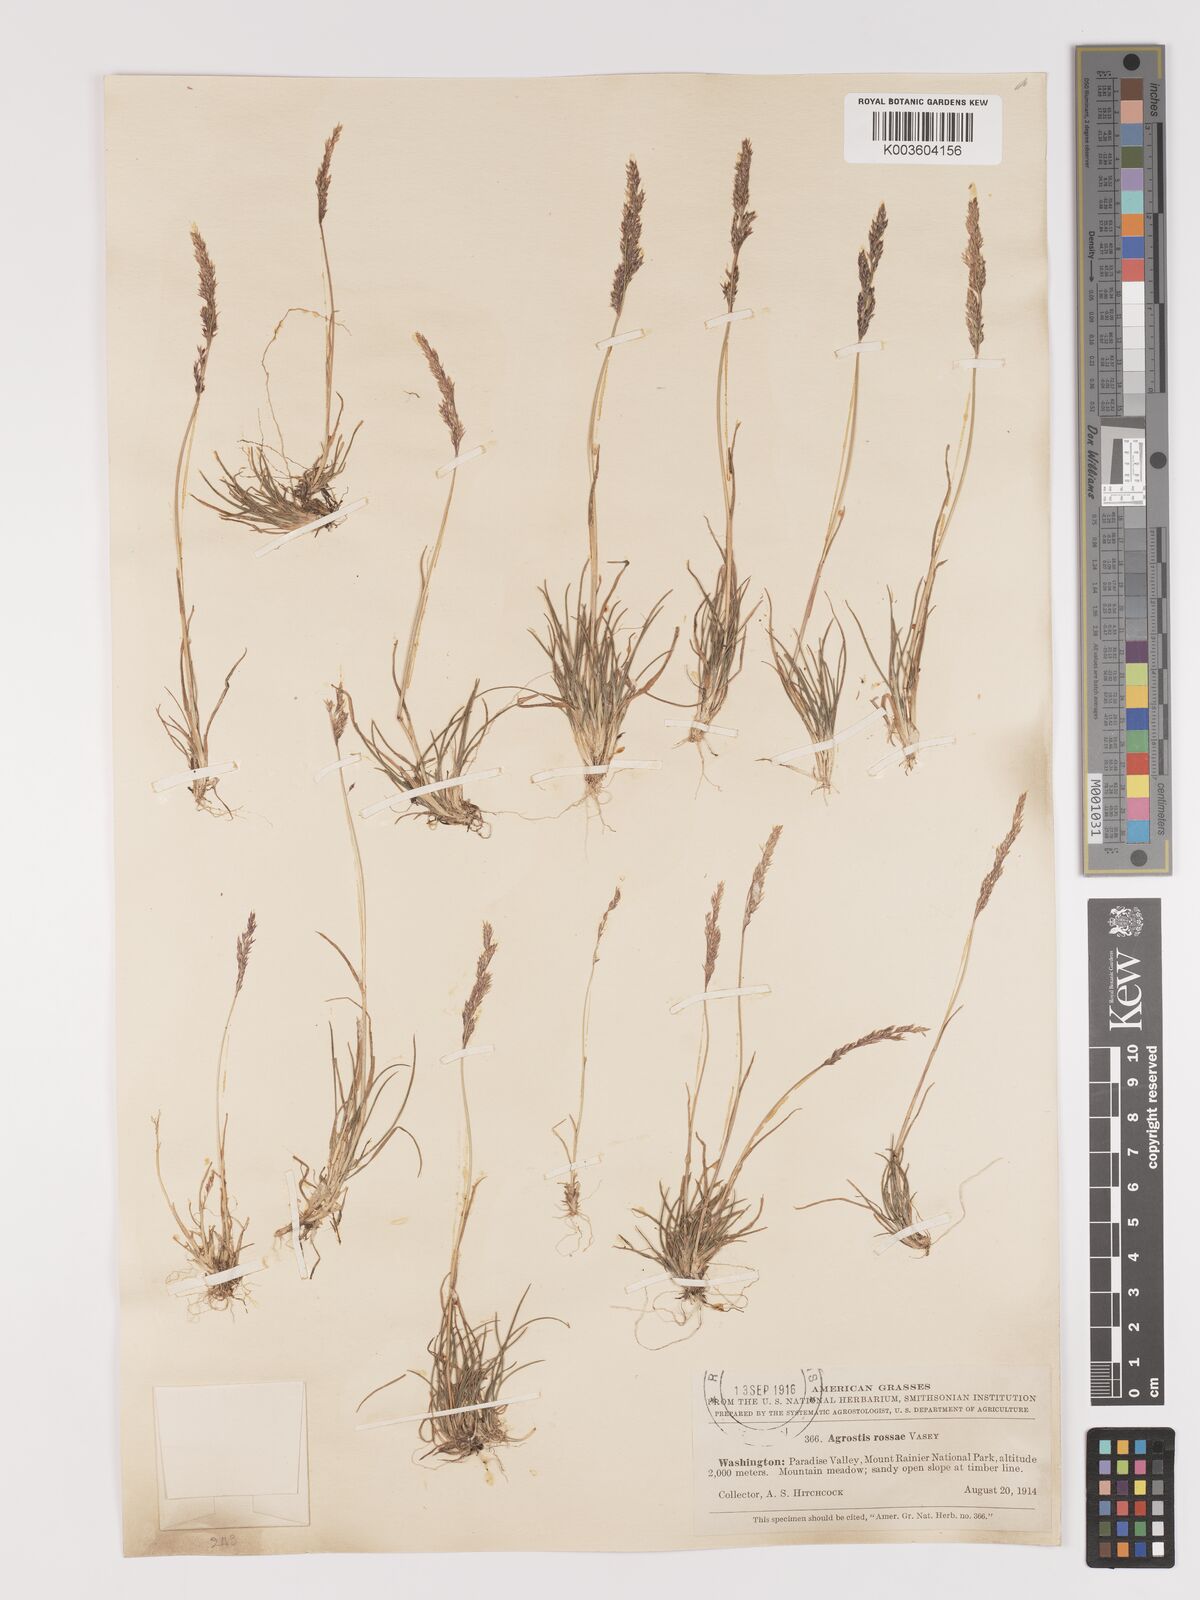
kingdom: Plantae
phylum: Tracheophyta
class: Liliopsida
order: Poales
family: Poaceae
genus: Agrostis
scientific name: Agrostis rossiae
